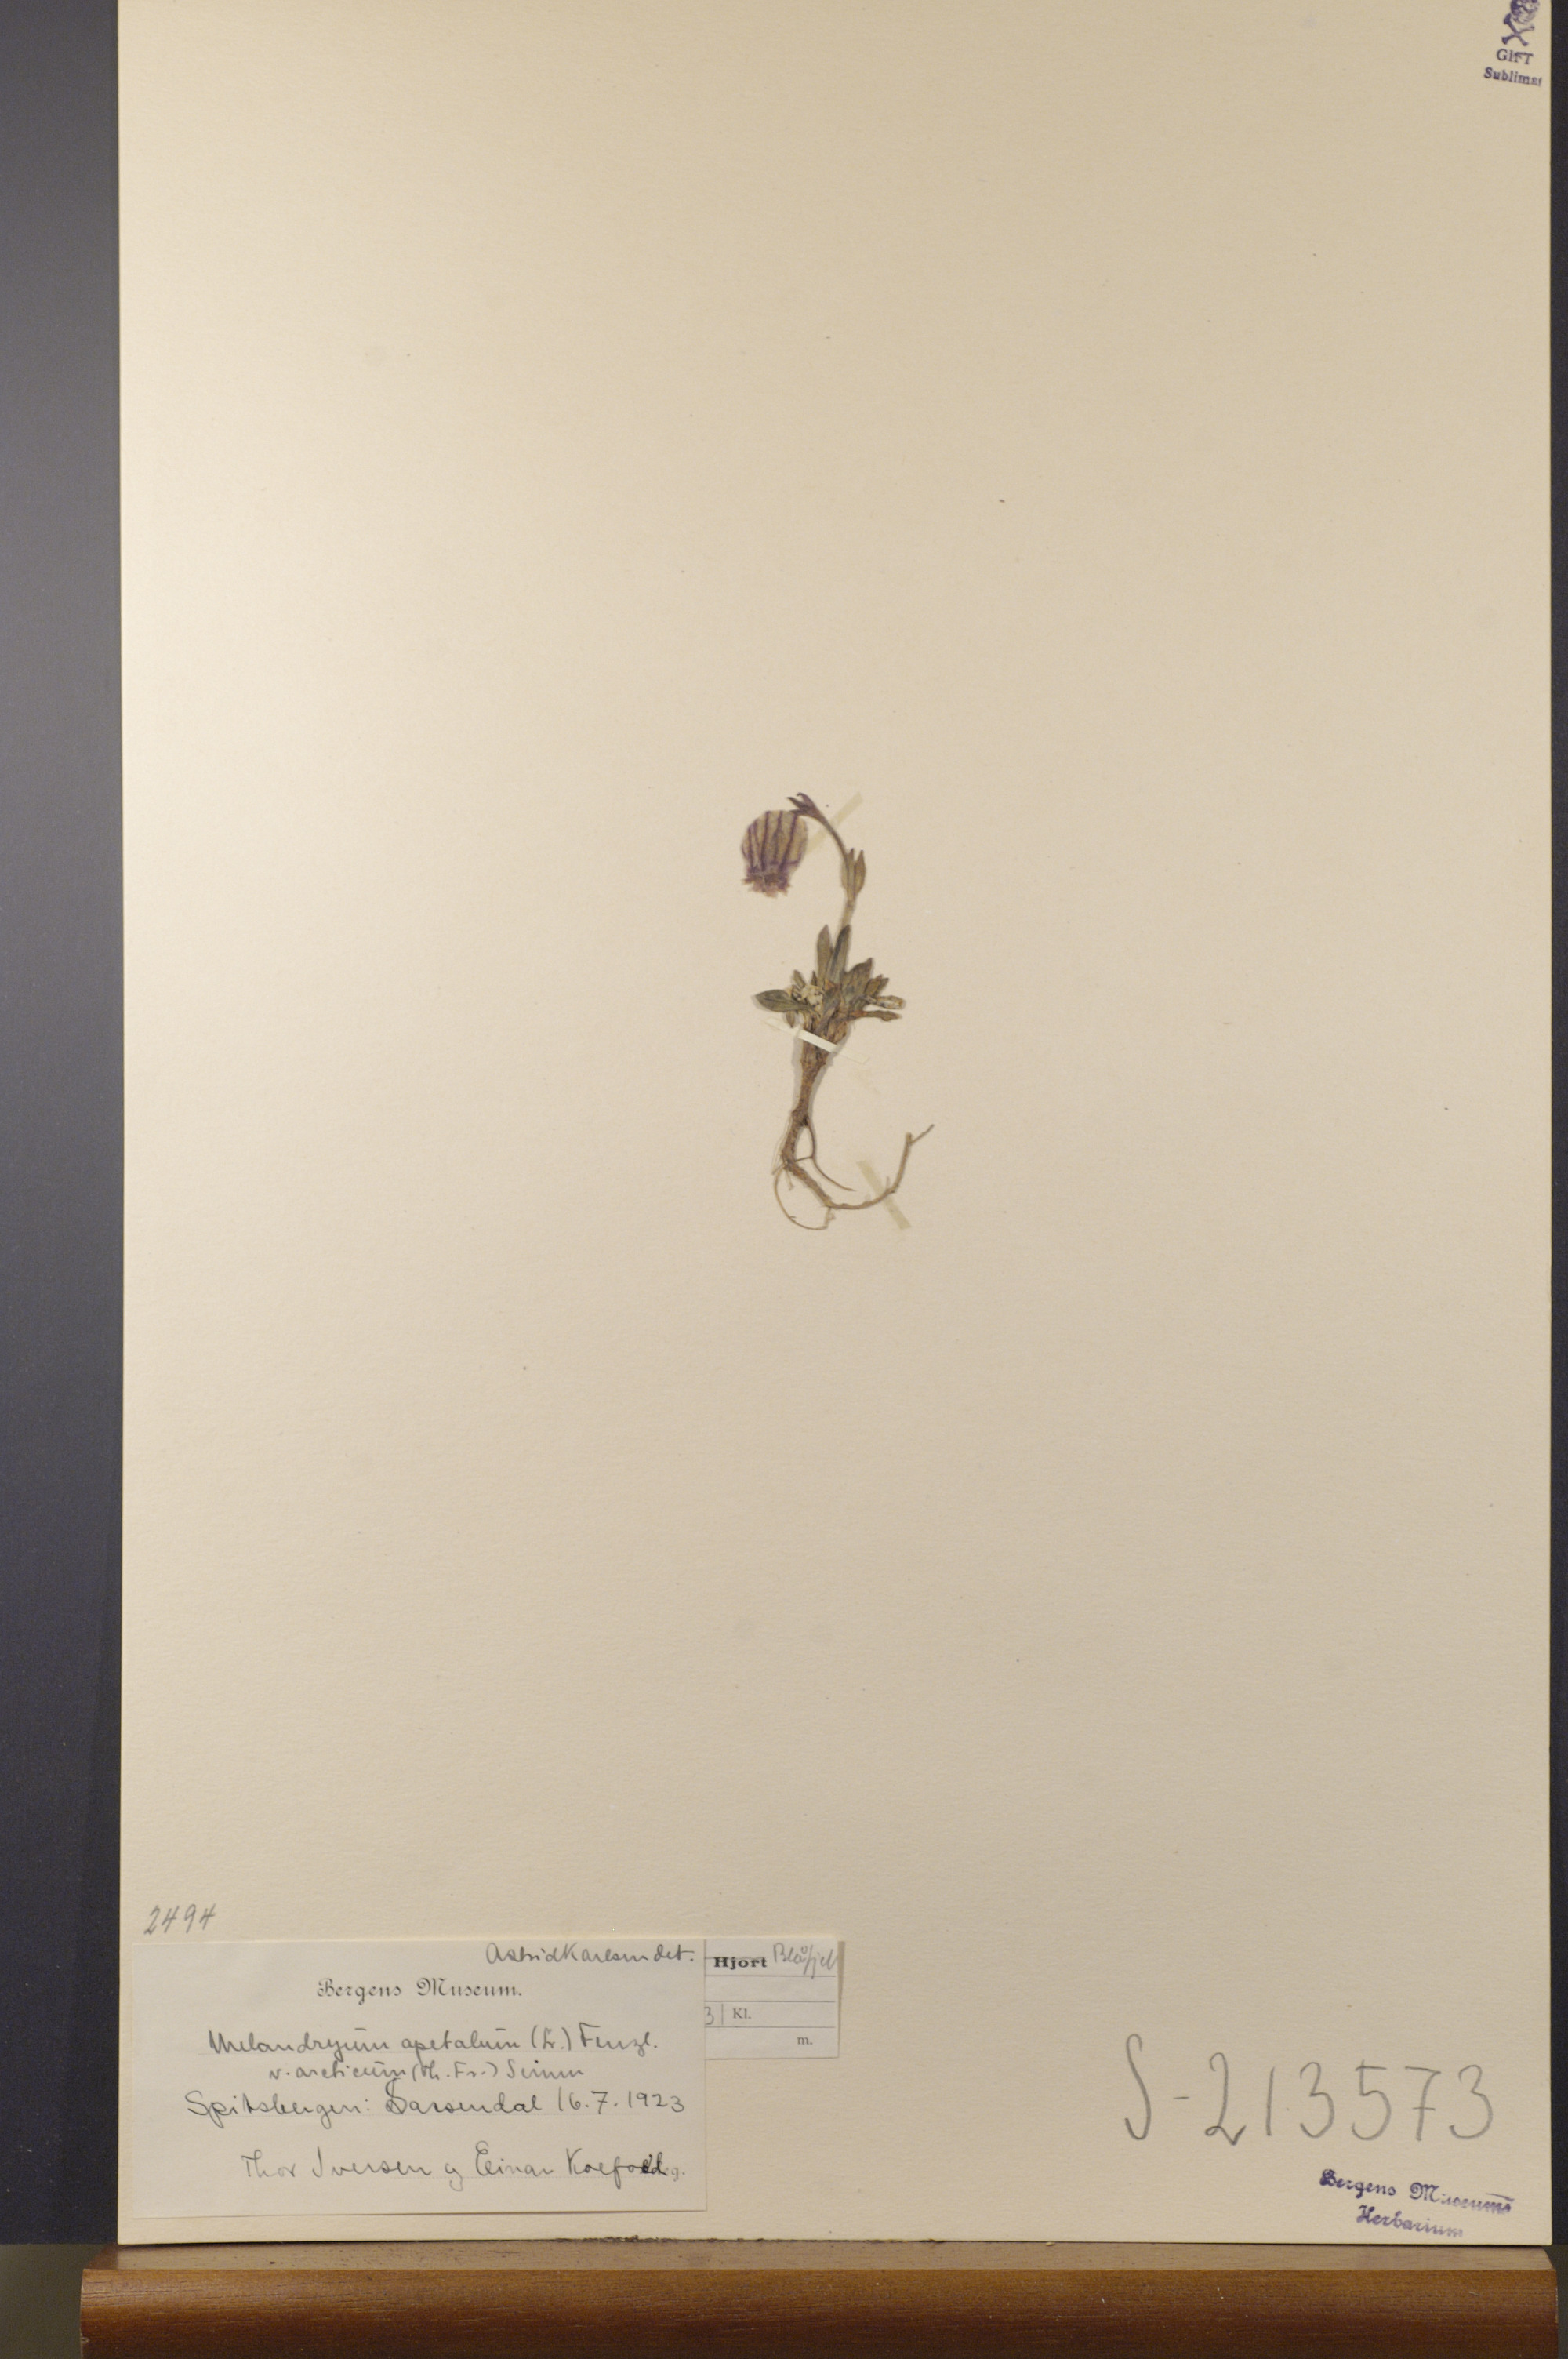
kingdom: Plantae
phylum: Tracheophyta
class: Magnoliopsida
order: Caryophyllales
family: Caryophyllaceae
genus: Silene
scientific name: Silene uralensis
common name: Nodding campion
